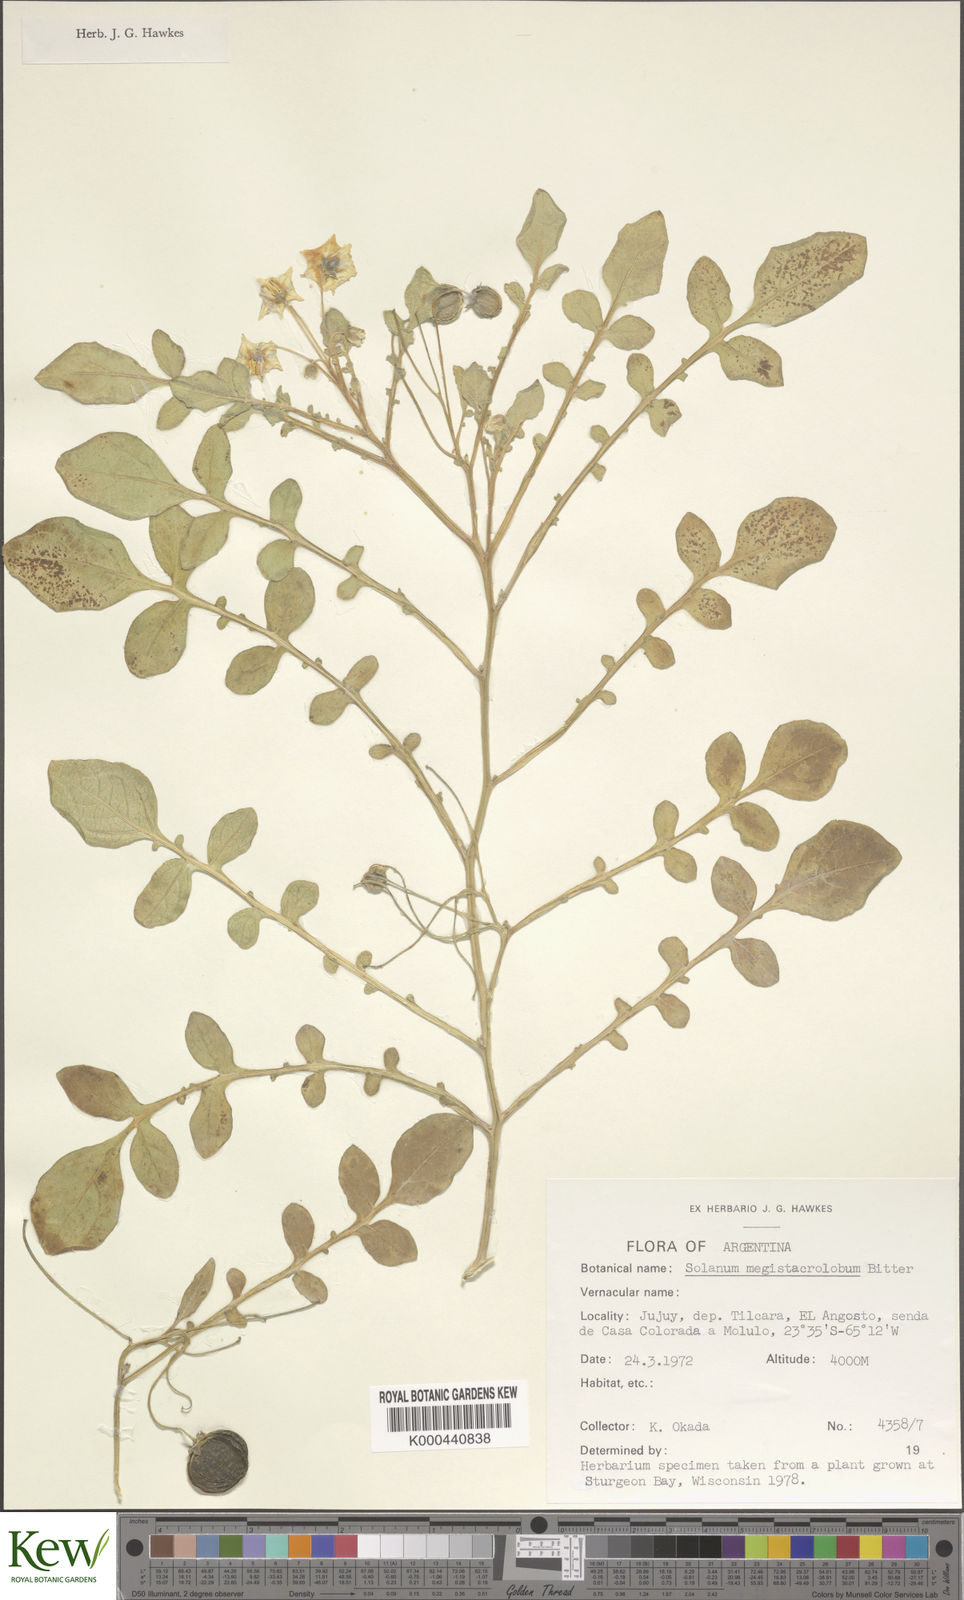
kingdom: Plantae
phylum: Tracheophyta
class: Magnoliopsida
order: Solanales
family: Solanaceae
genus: Solanum
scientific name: Solanum boliviense
